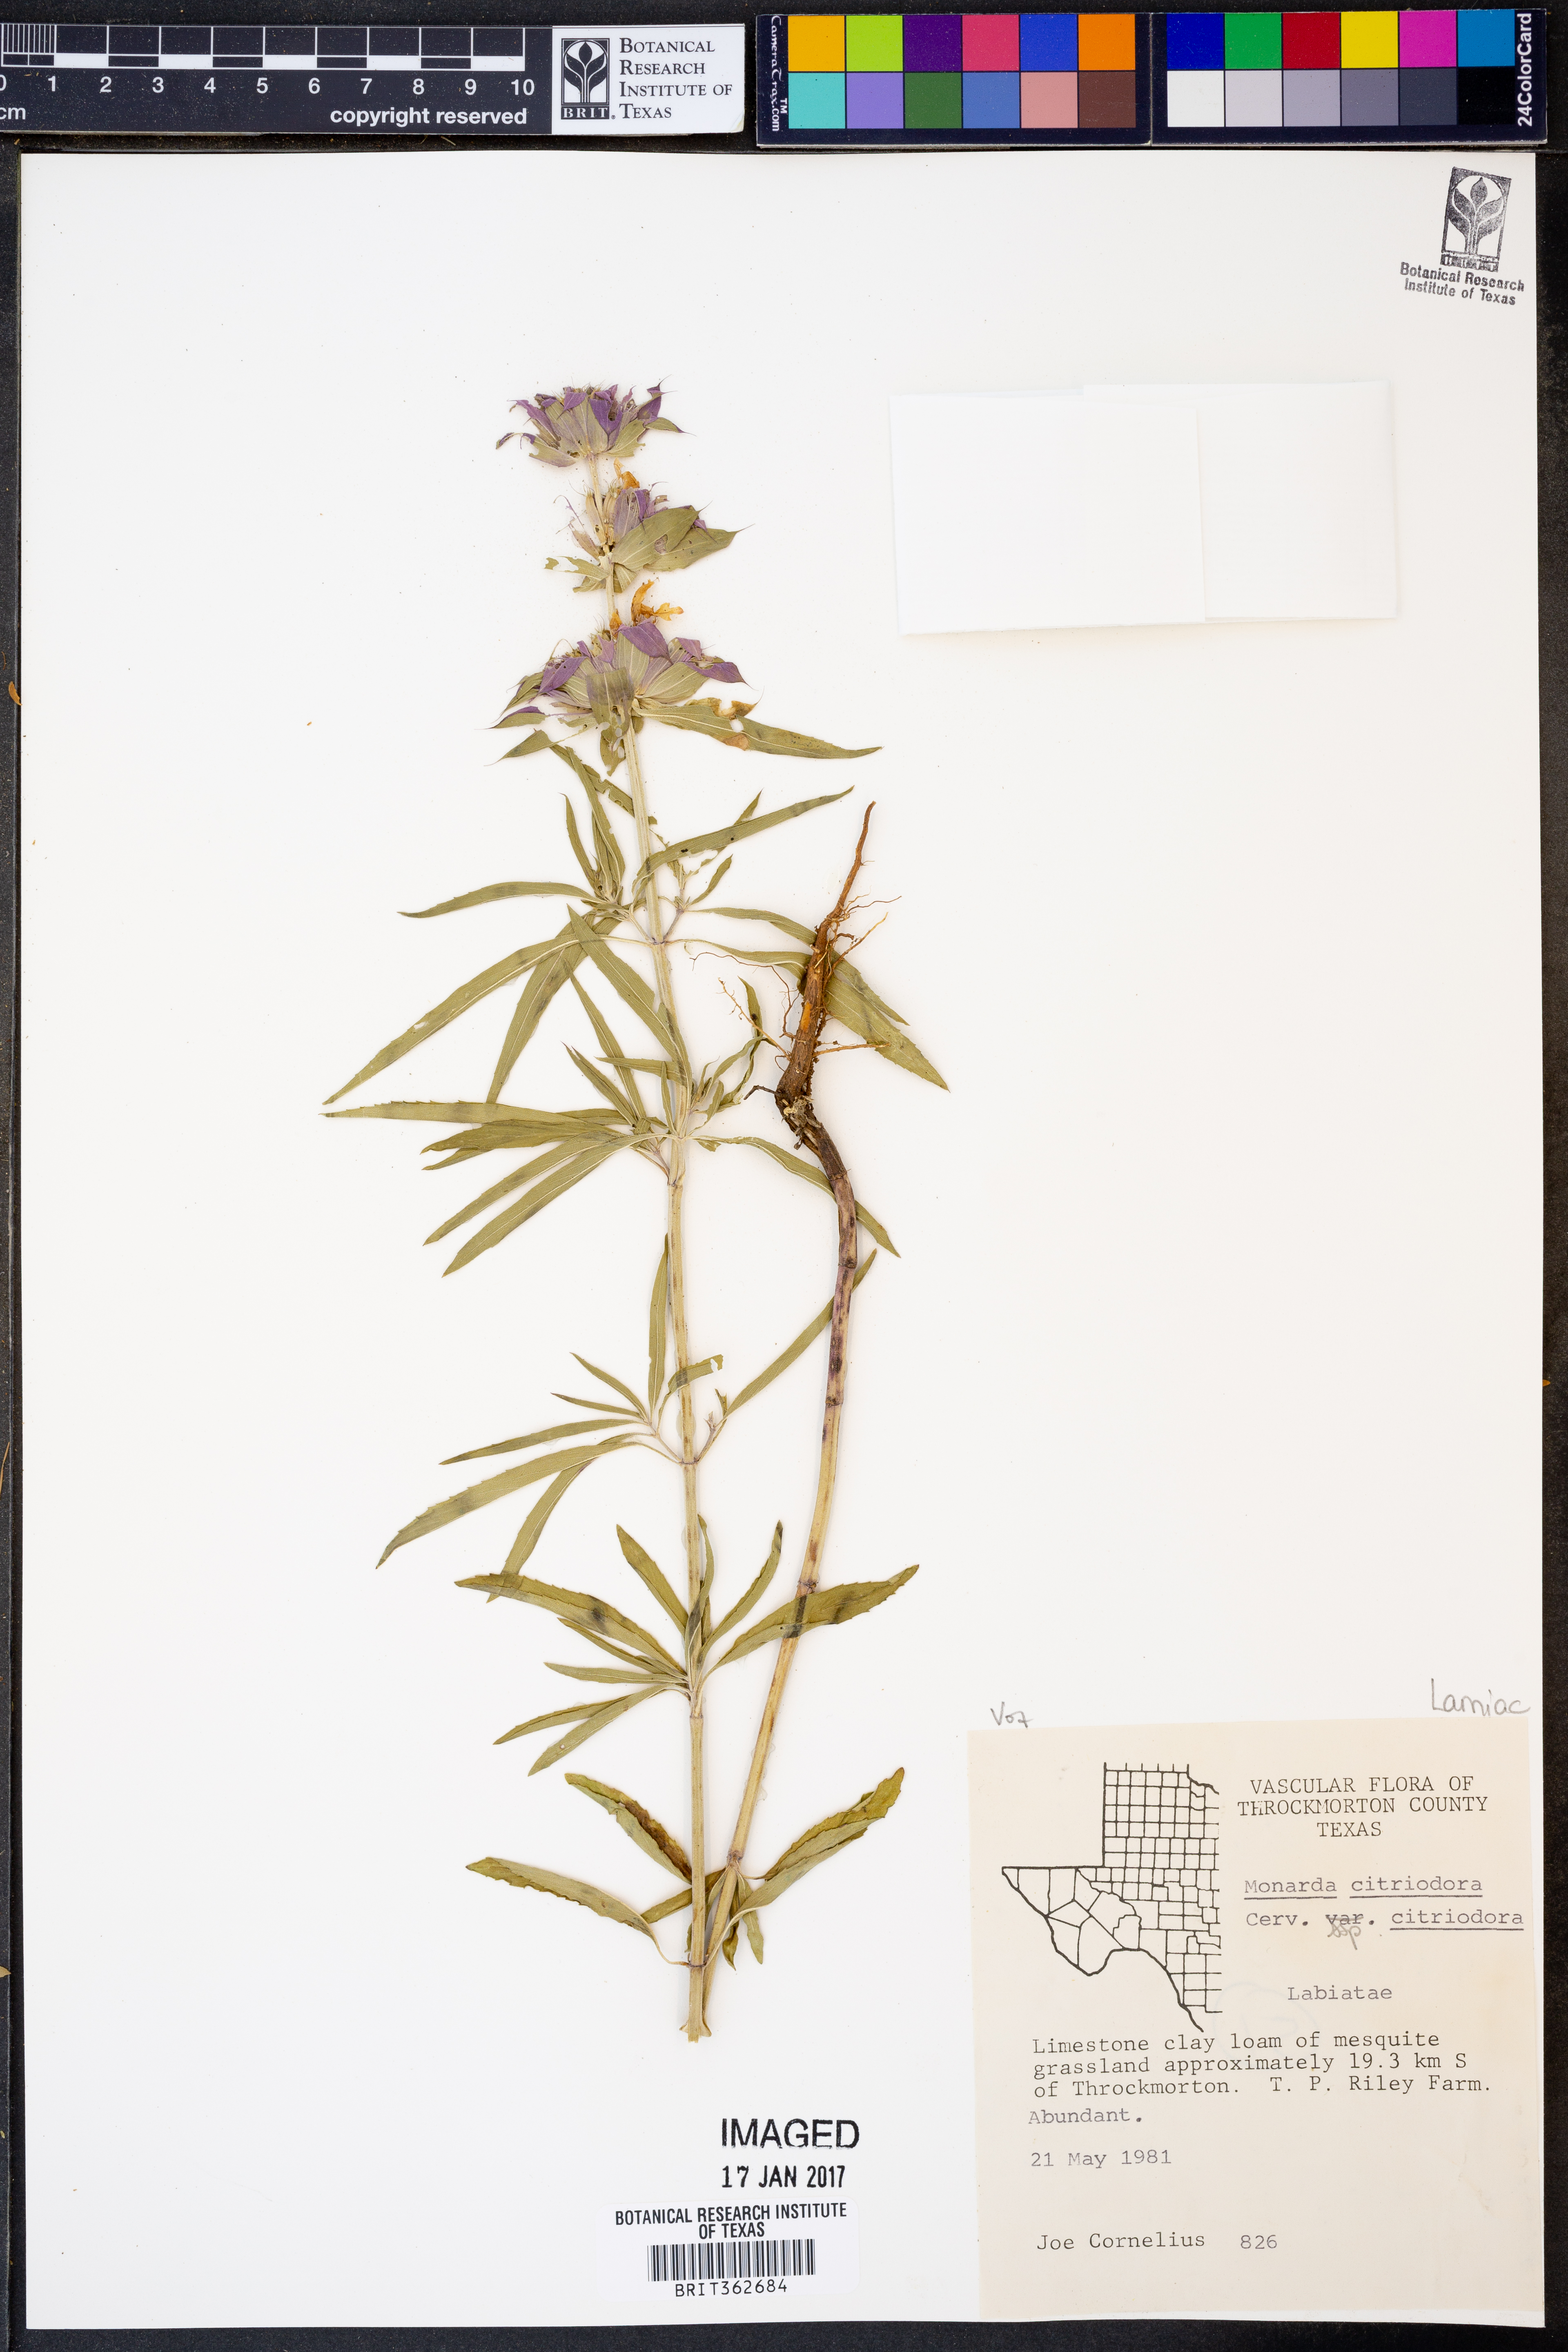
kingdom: Plantae
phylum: Tracheophyta
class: Magnoliopsida
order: Lamiales
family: Lamiaceae
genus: Monarda
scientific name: Monarda citriodora
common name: Lemon beebalm
